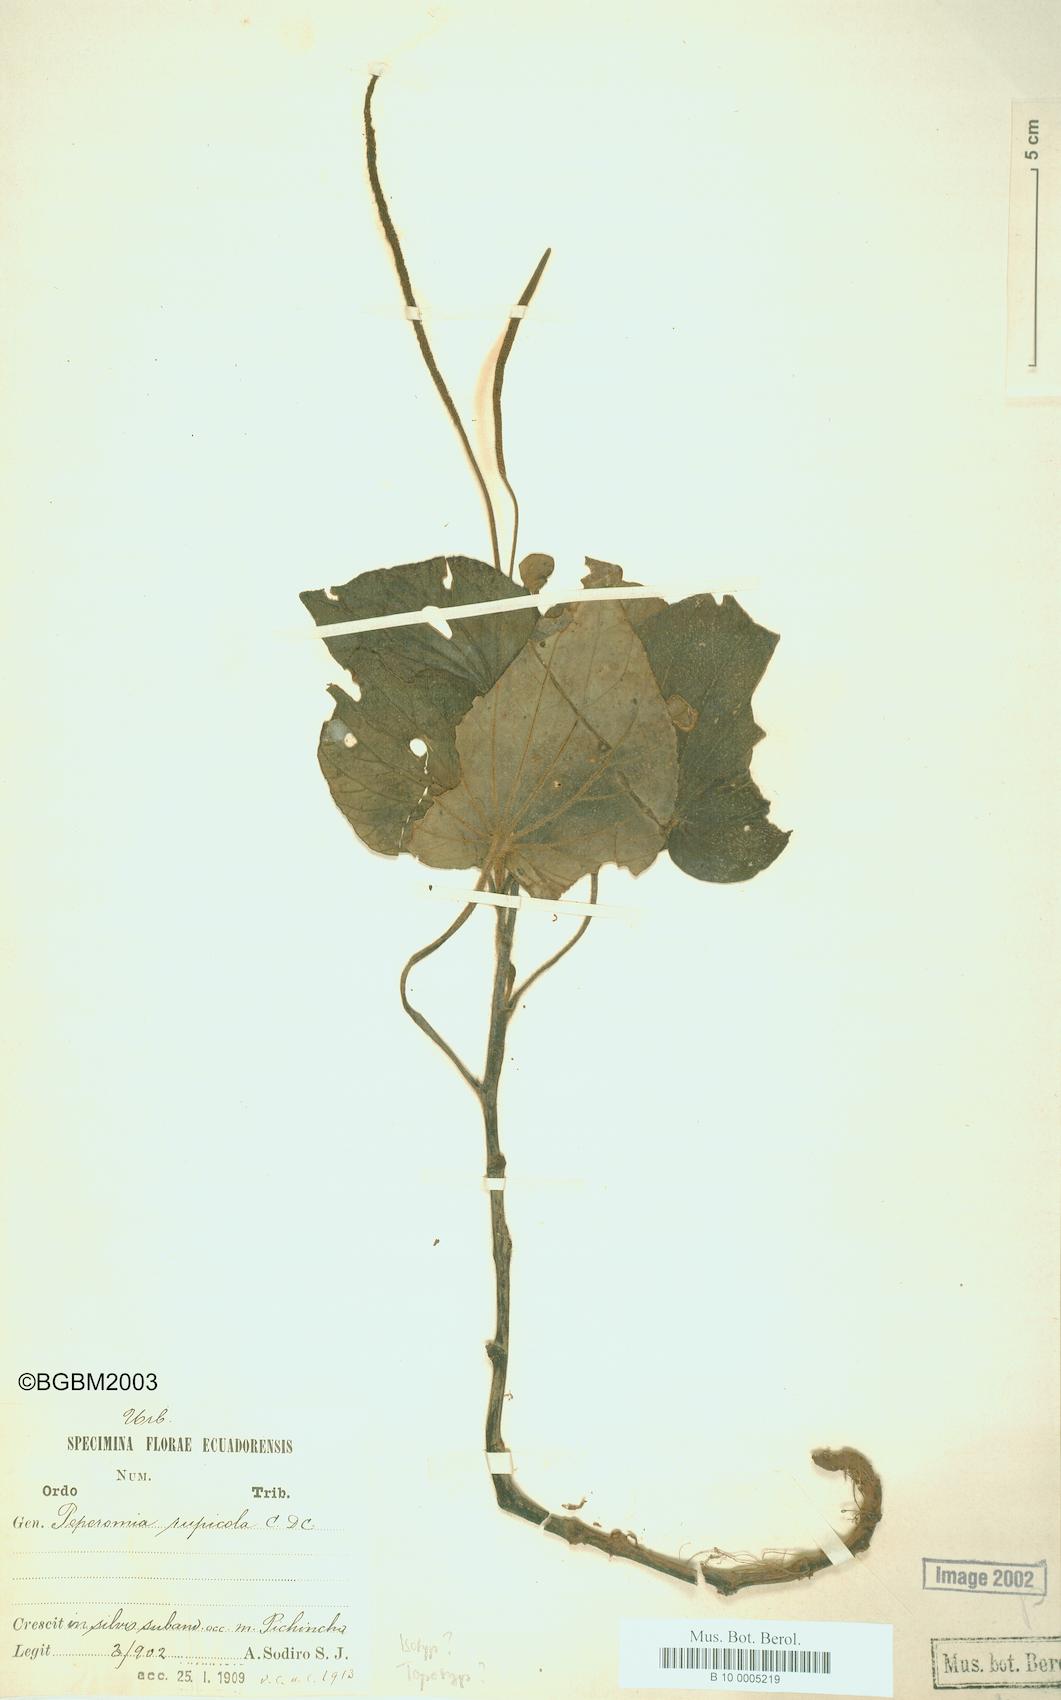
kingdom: Plantae
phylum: Tracheophyta
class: Magnoliopsida
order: Piperales
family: Piperaceae
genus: Peperomia
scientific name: Peperomia rupicola
